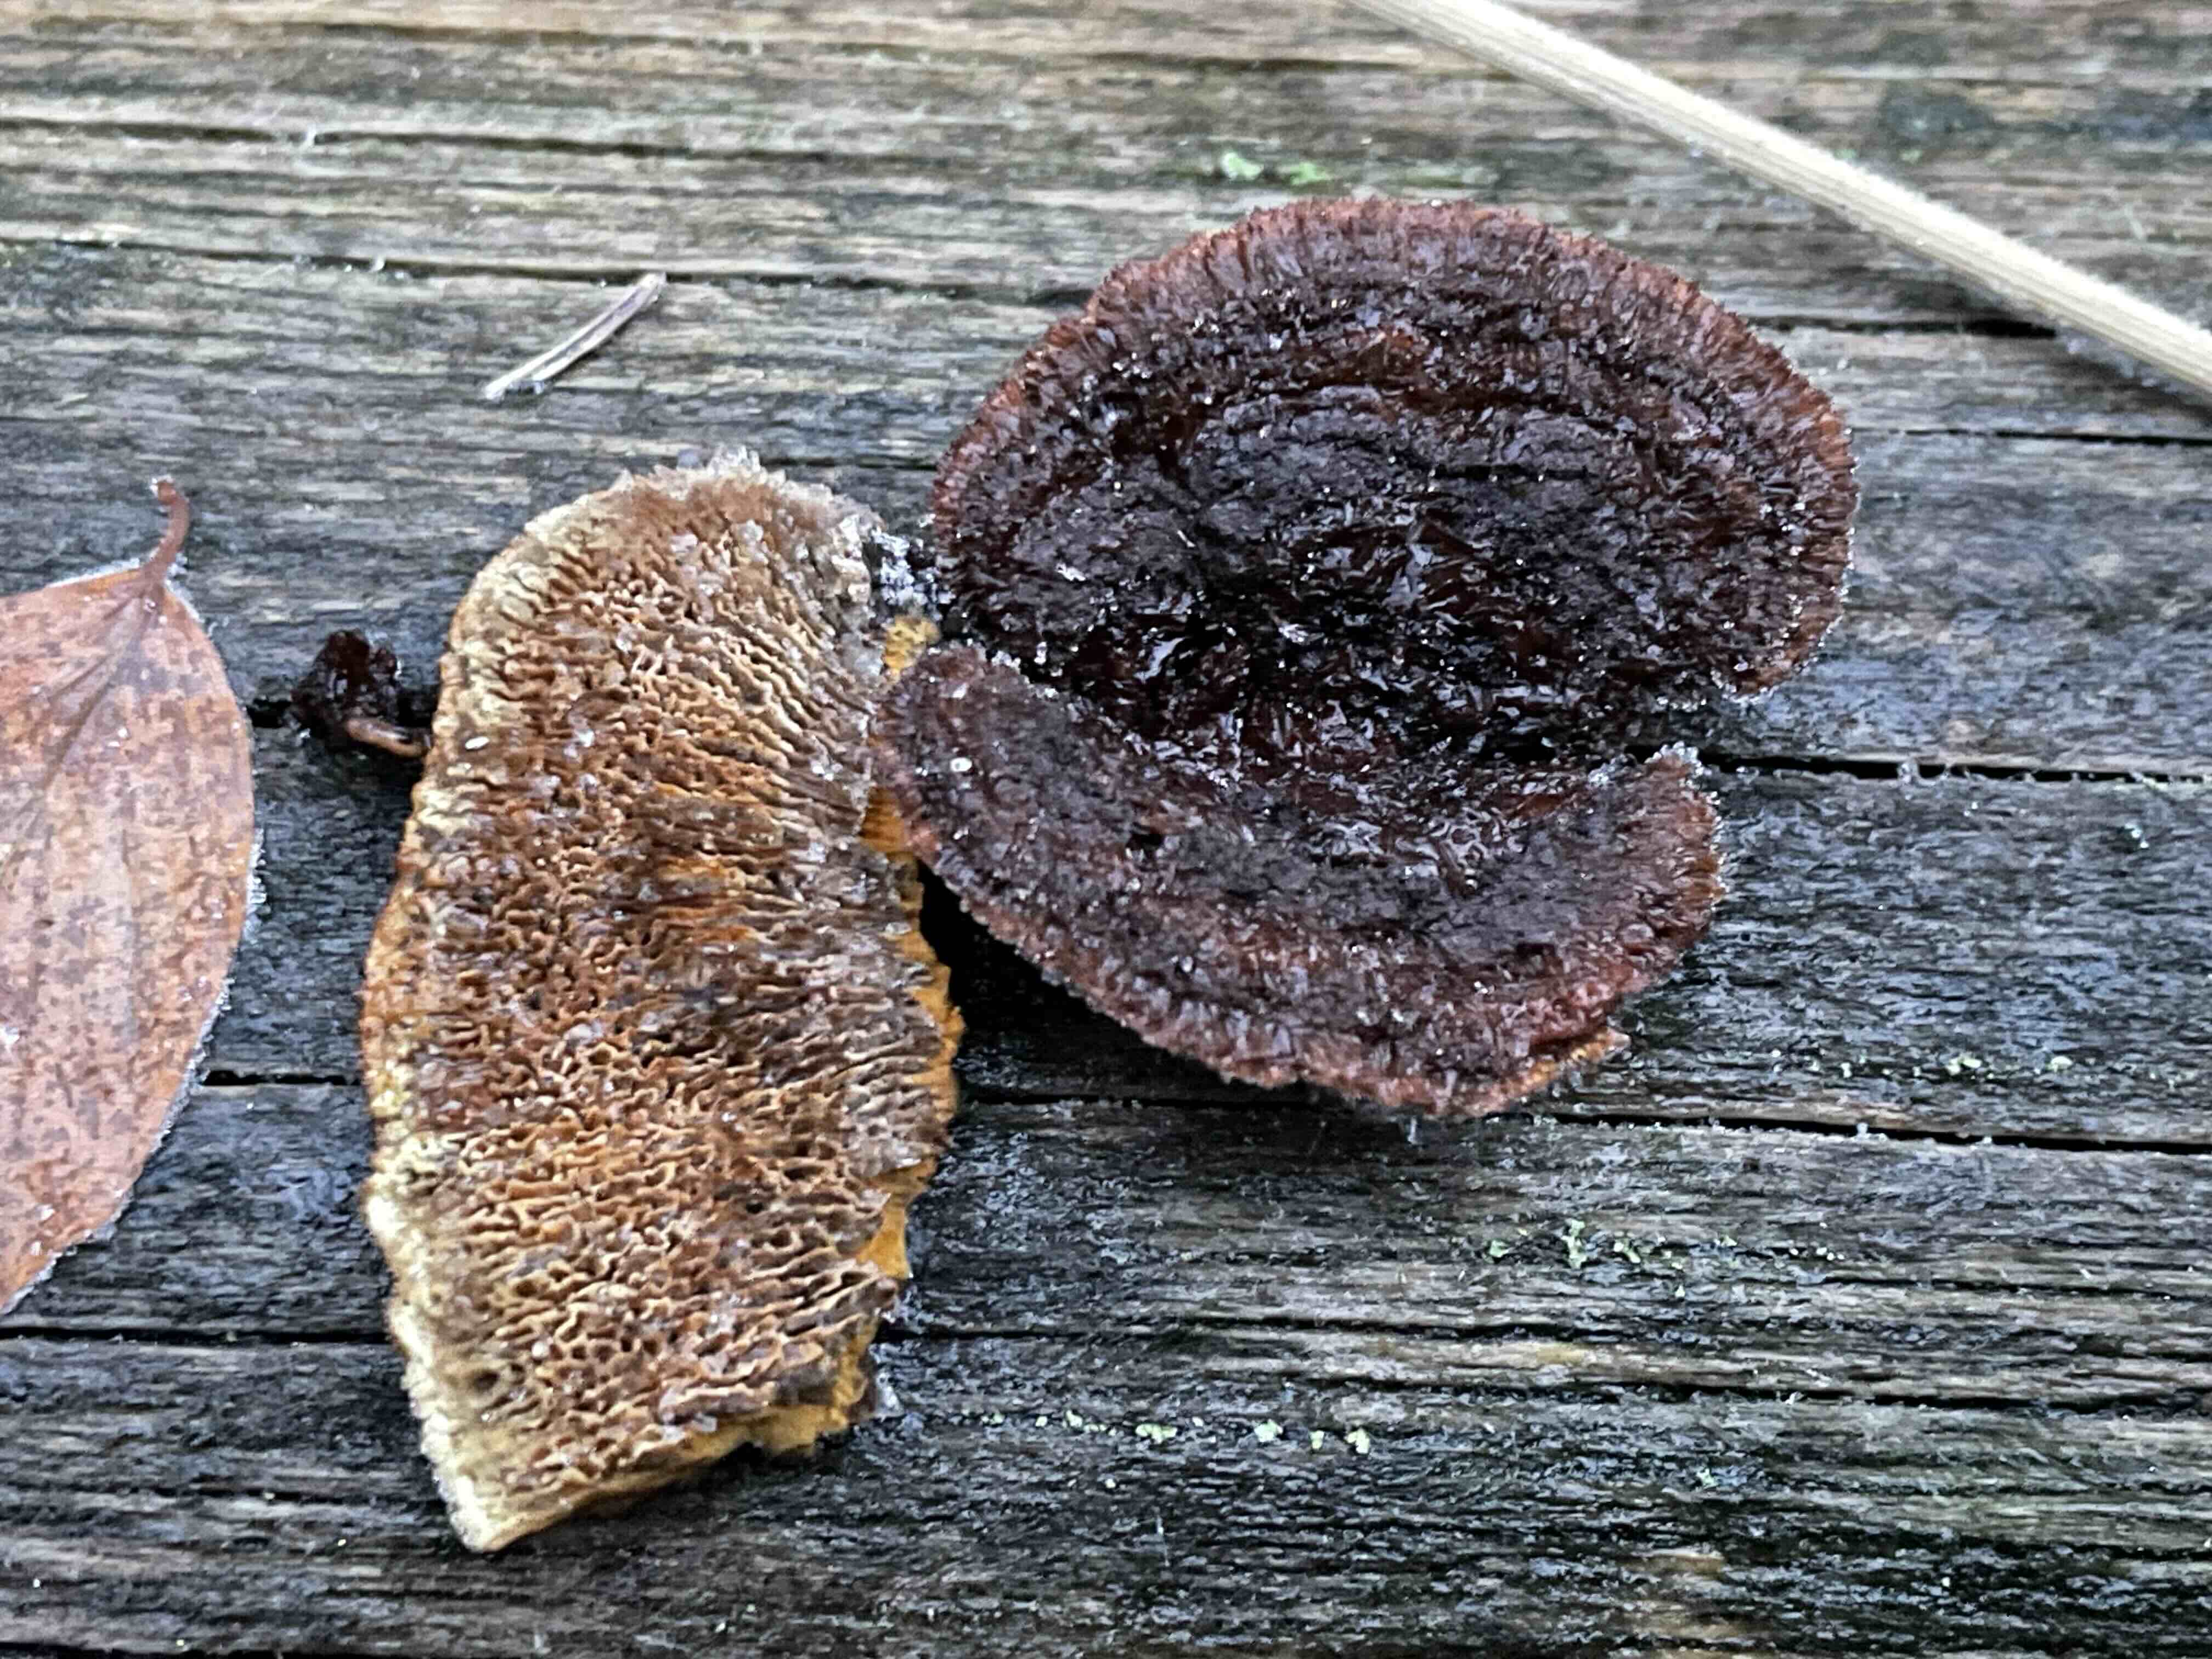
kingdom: Fungi
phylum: Basidiomycota
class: Agaricomycetes
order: Gloeophyllales
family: Gloeophyllaceae
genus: Gloeophyllum
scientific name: Gloeophyllum sepiarium
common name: fyrre-korkhat
